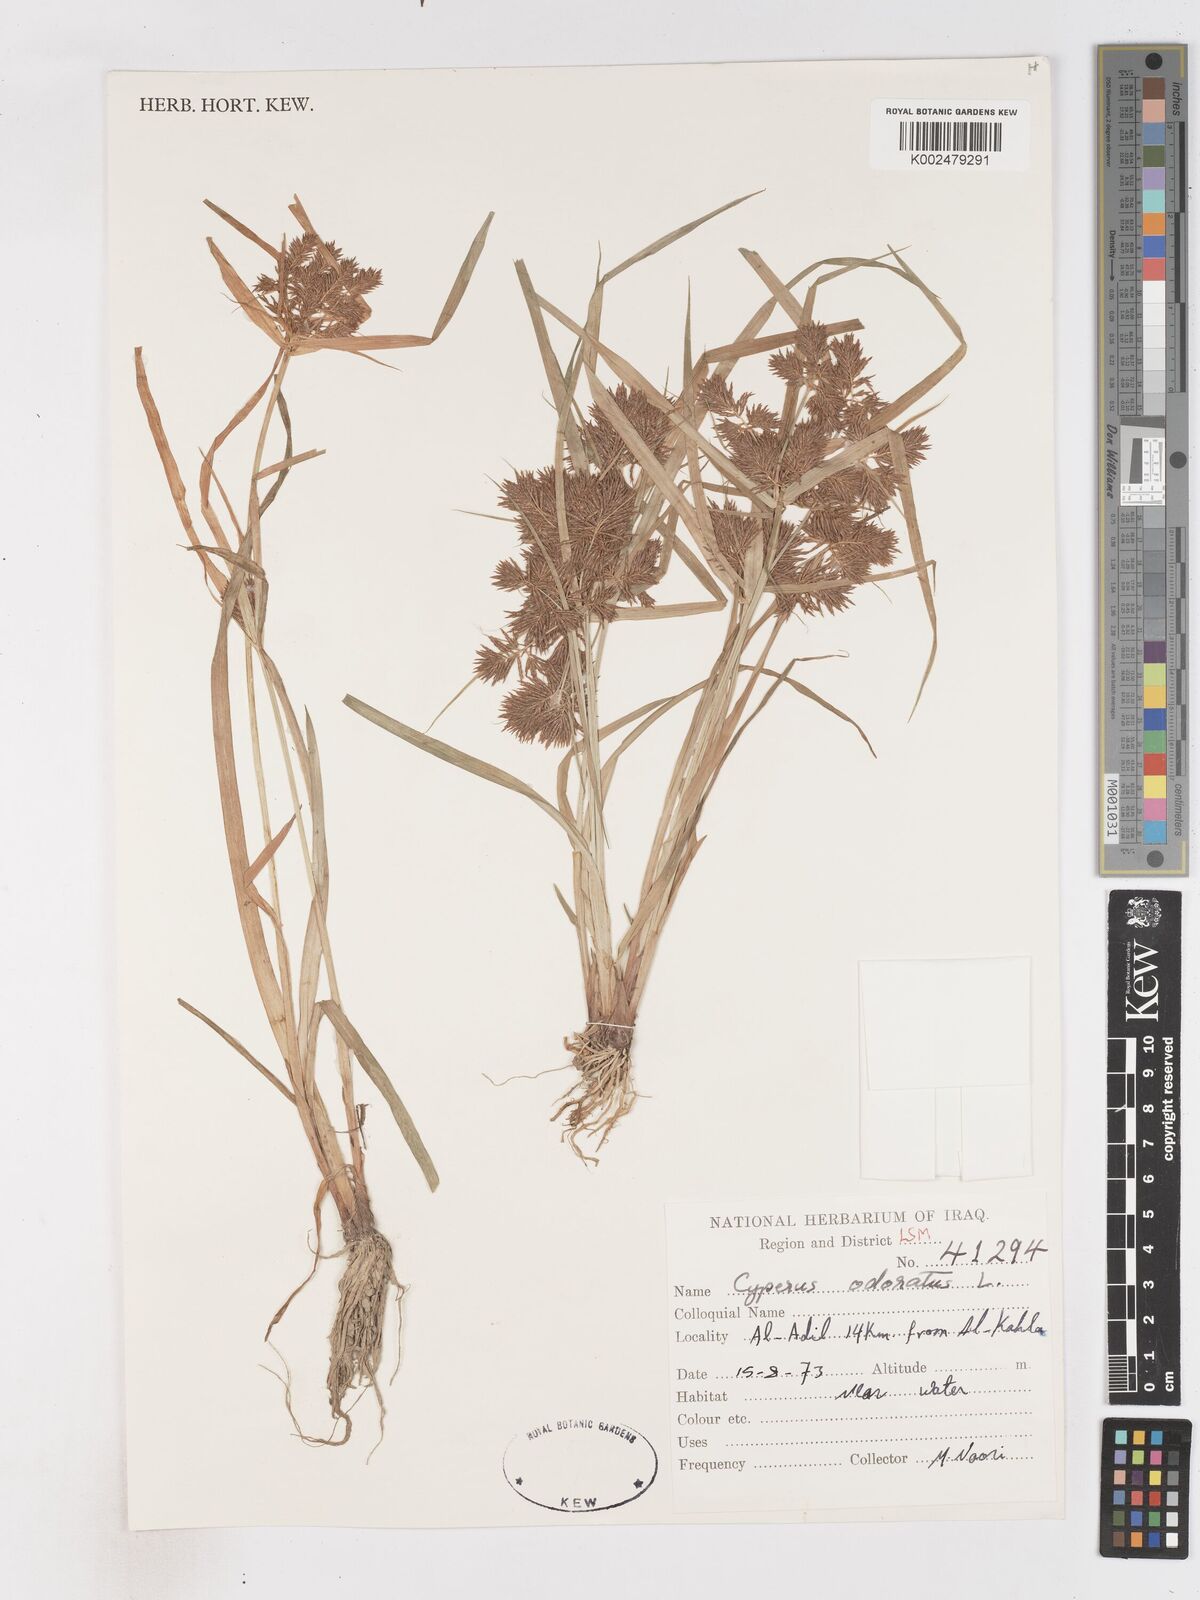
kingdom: Plantae
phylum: Tracheophyta
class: Liliopsida
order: Poales
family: Cyperaceae
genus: Cyperus
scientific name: Cyperus odoratus
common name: Fragrant flatsedge
